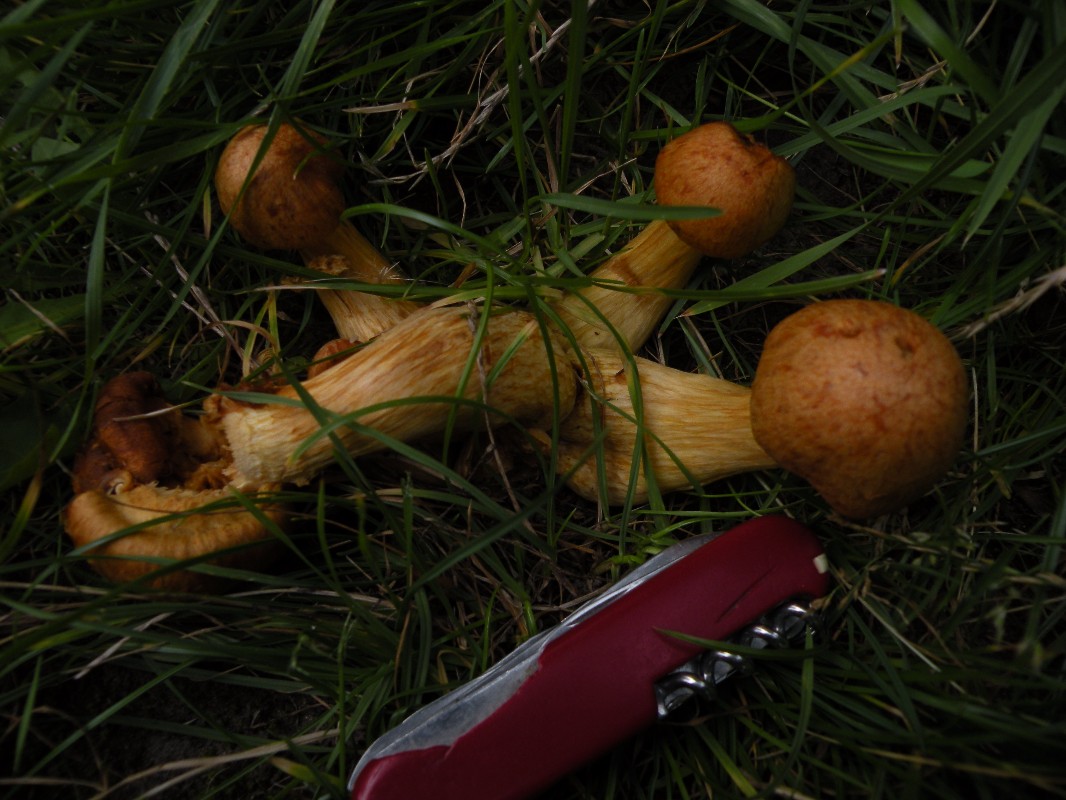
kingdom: Fungi
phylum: Basidiomycota
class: Agaricomycetes
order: Agaricales
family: Hymenogastraceae
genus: Gymnopilus
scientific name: Gymnopilus spectabilis
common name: fibret flammehat
